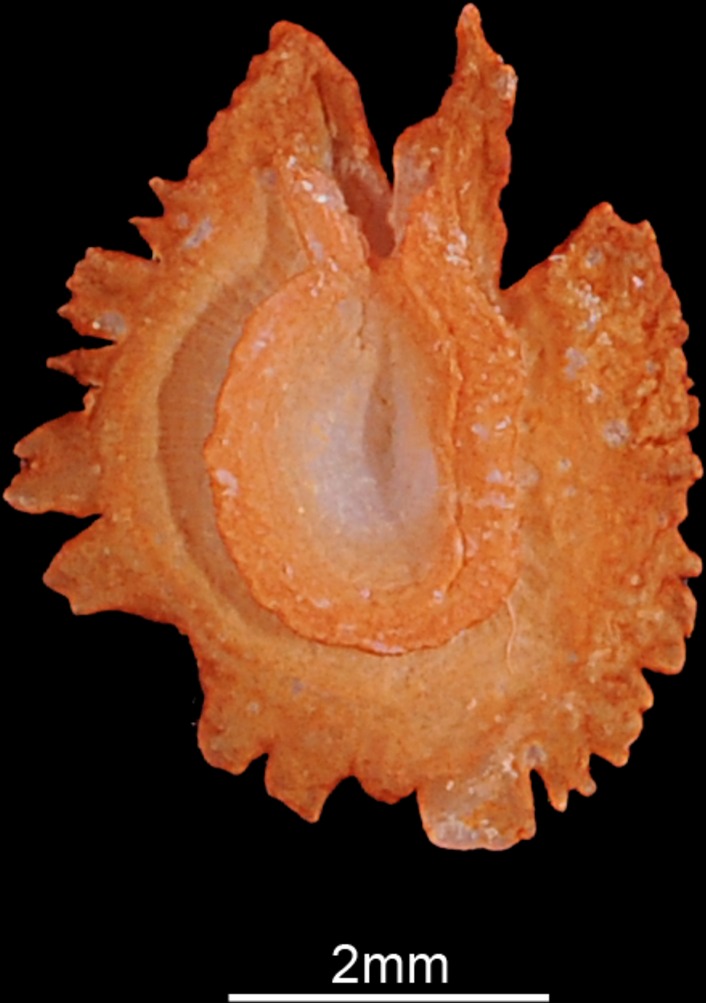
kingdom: Animalia
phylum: Chordata
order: Cypriniformes
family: Cyprinidae
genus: Abramis
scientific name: Abramis brama
